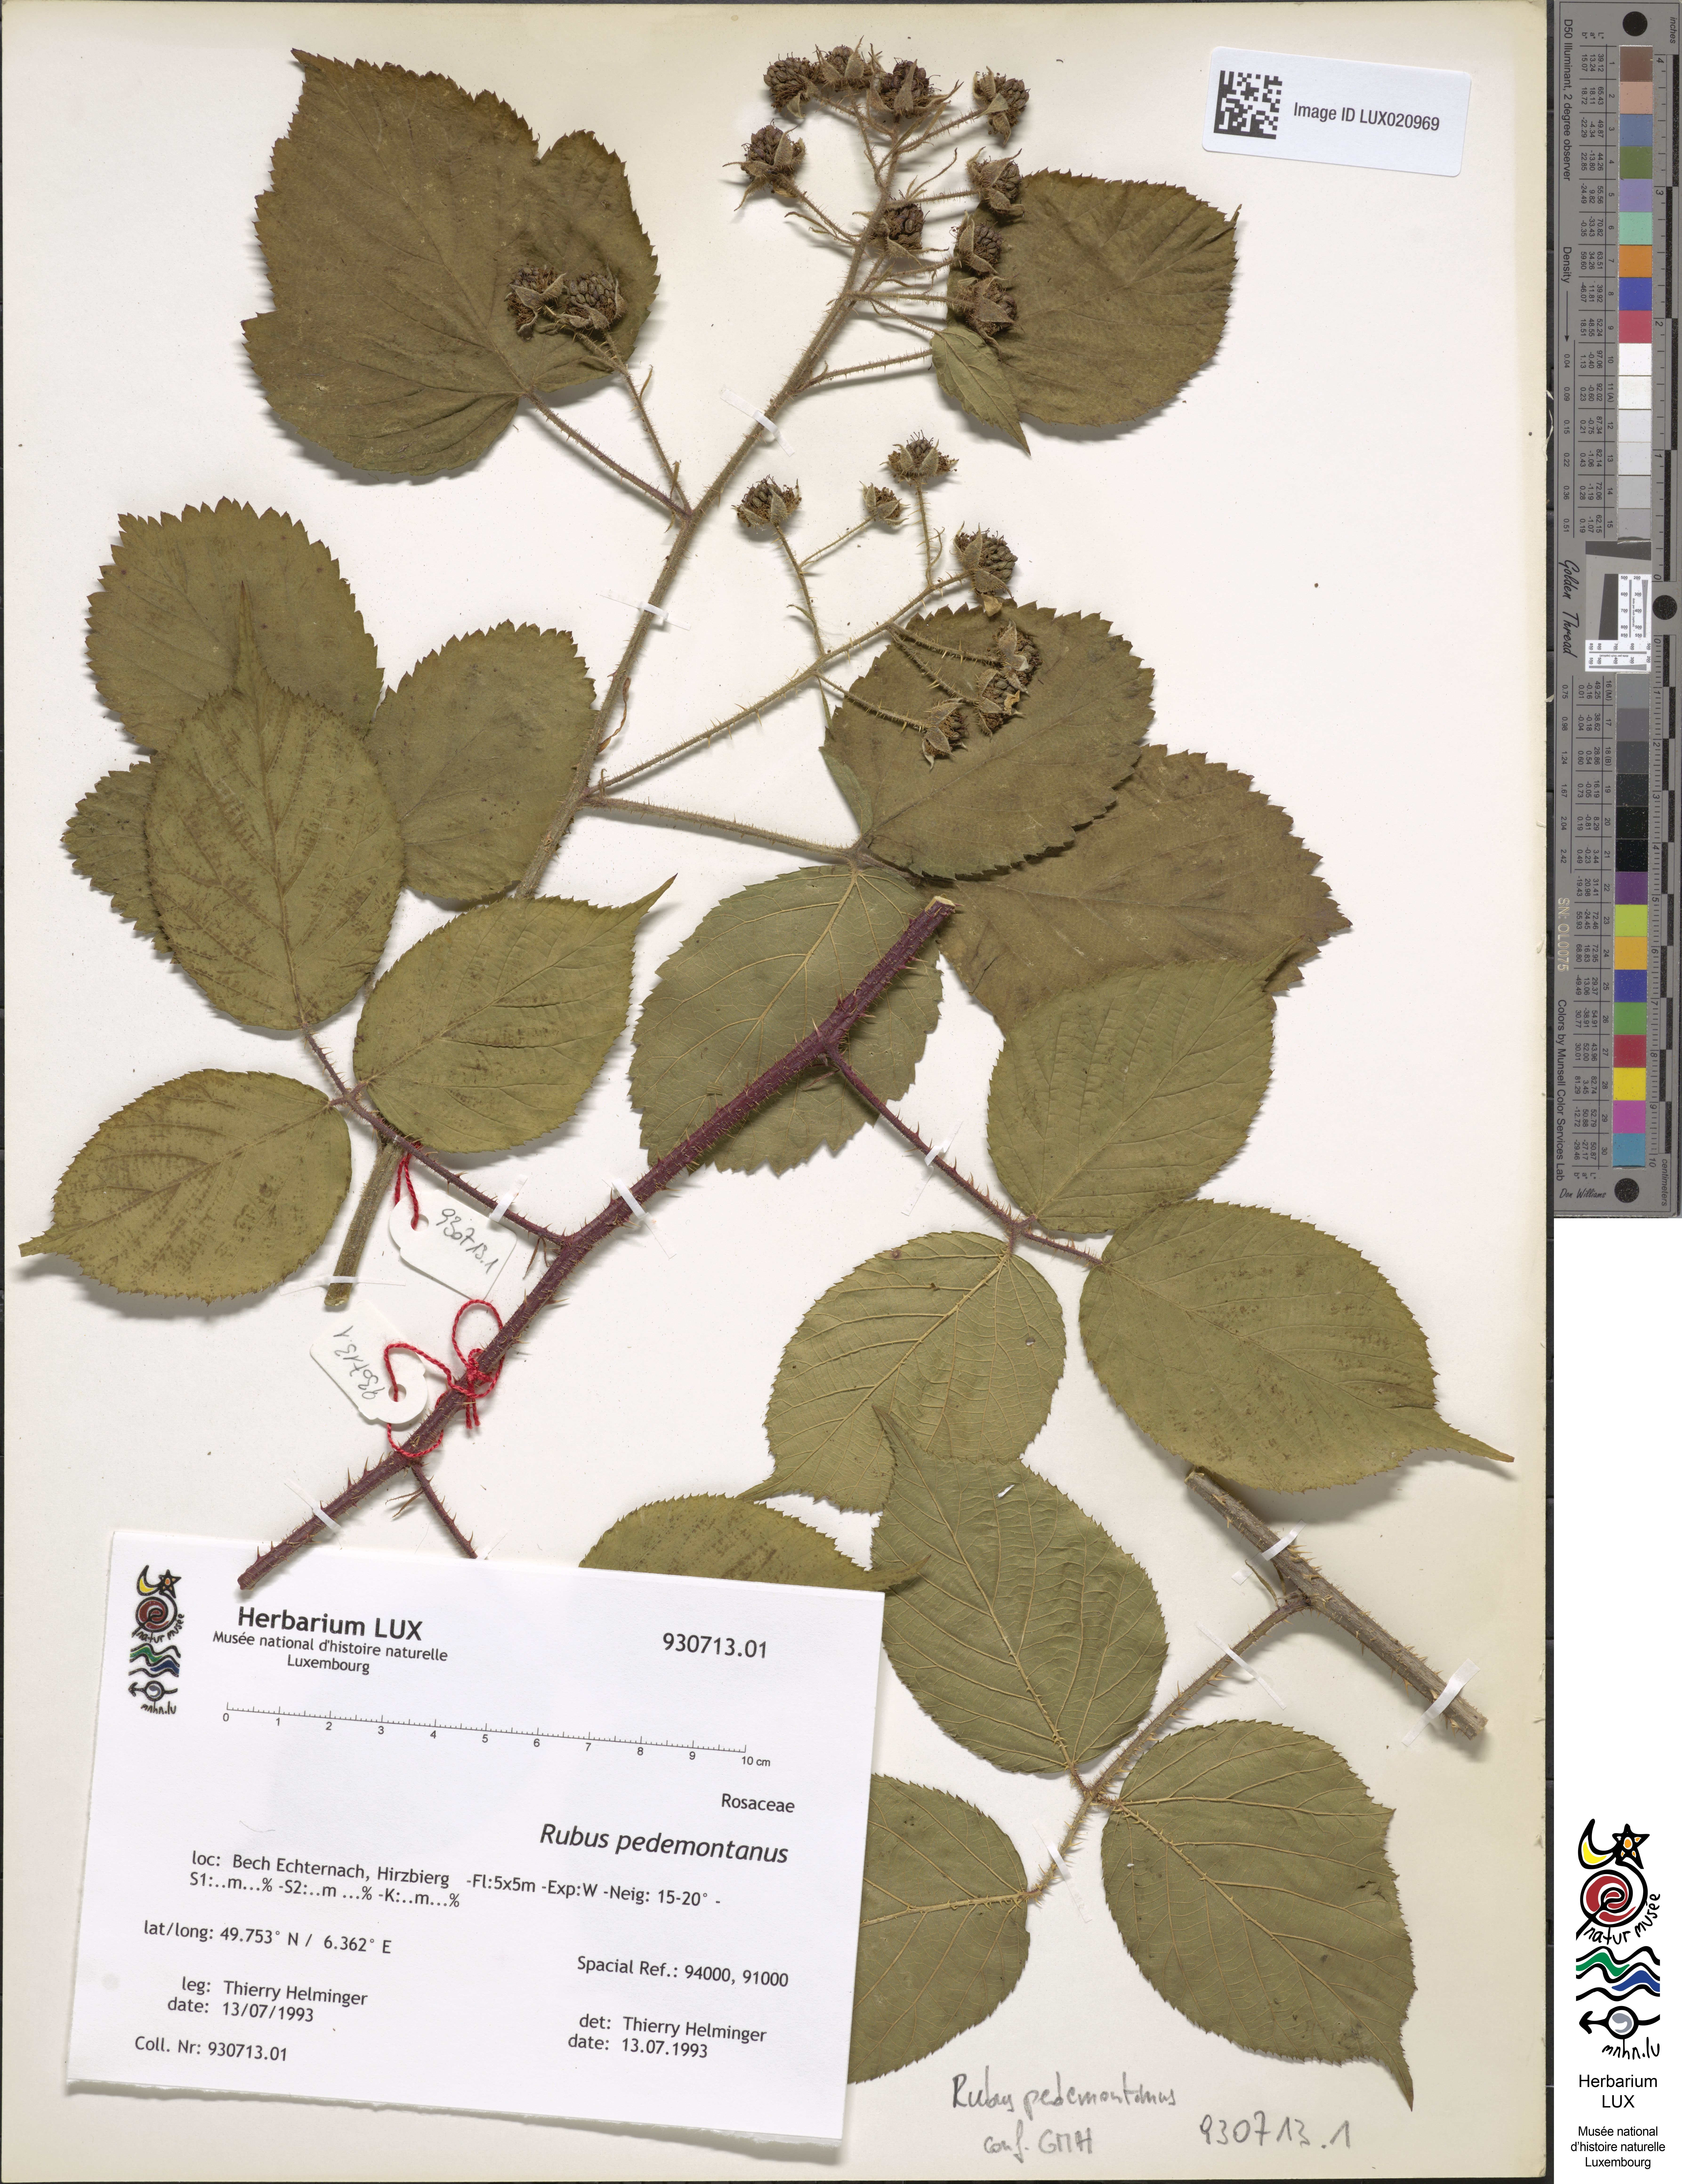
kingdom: Plantae
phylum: Tracheophyta
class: Magnoliopsida
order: Rosales
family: Rosaceae
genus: Rubus
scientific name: Rubus nigricans
